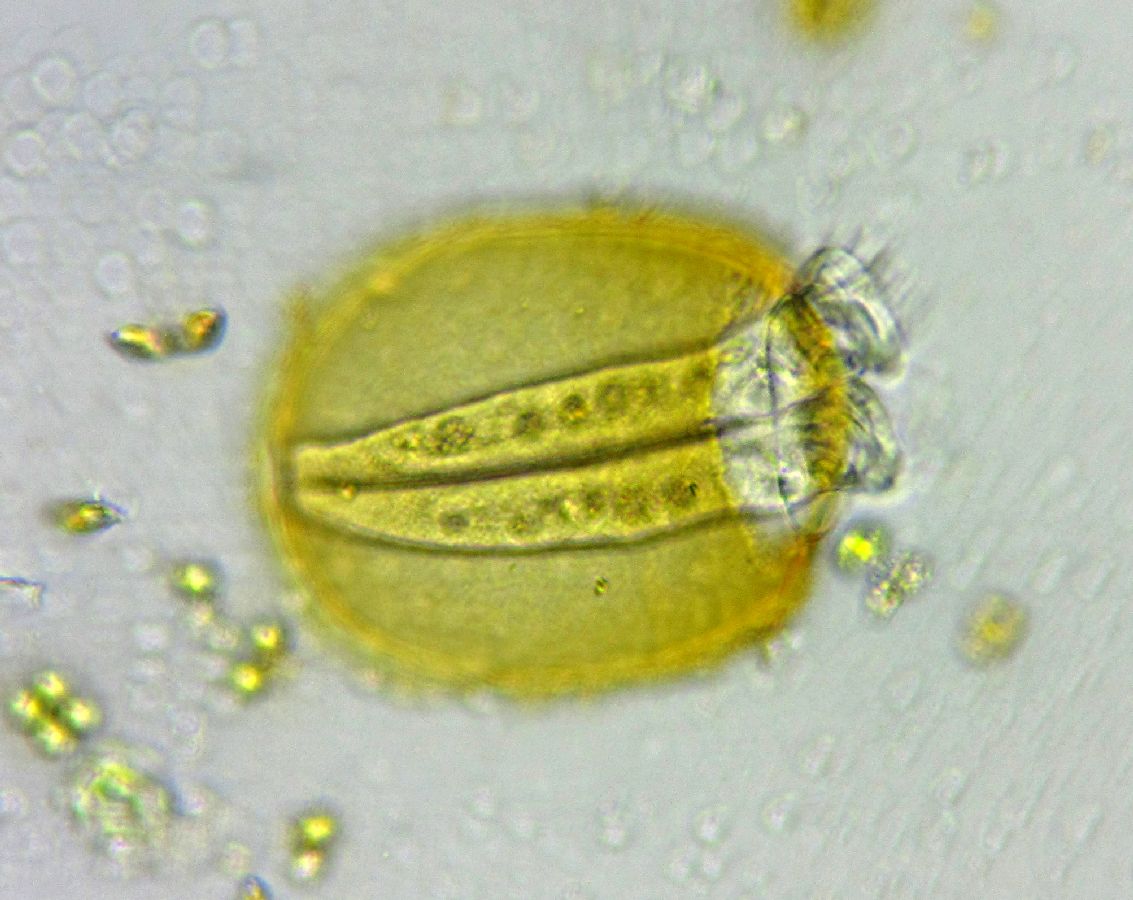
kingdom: Chromista
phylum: Ciliophora
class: Oligohymenophorea
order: Peritrichida
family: Vaginicolidae
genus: Platycola
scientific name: Platycola decumbens
